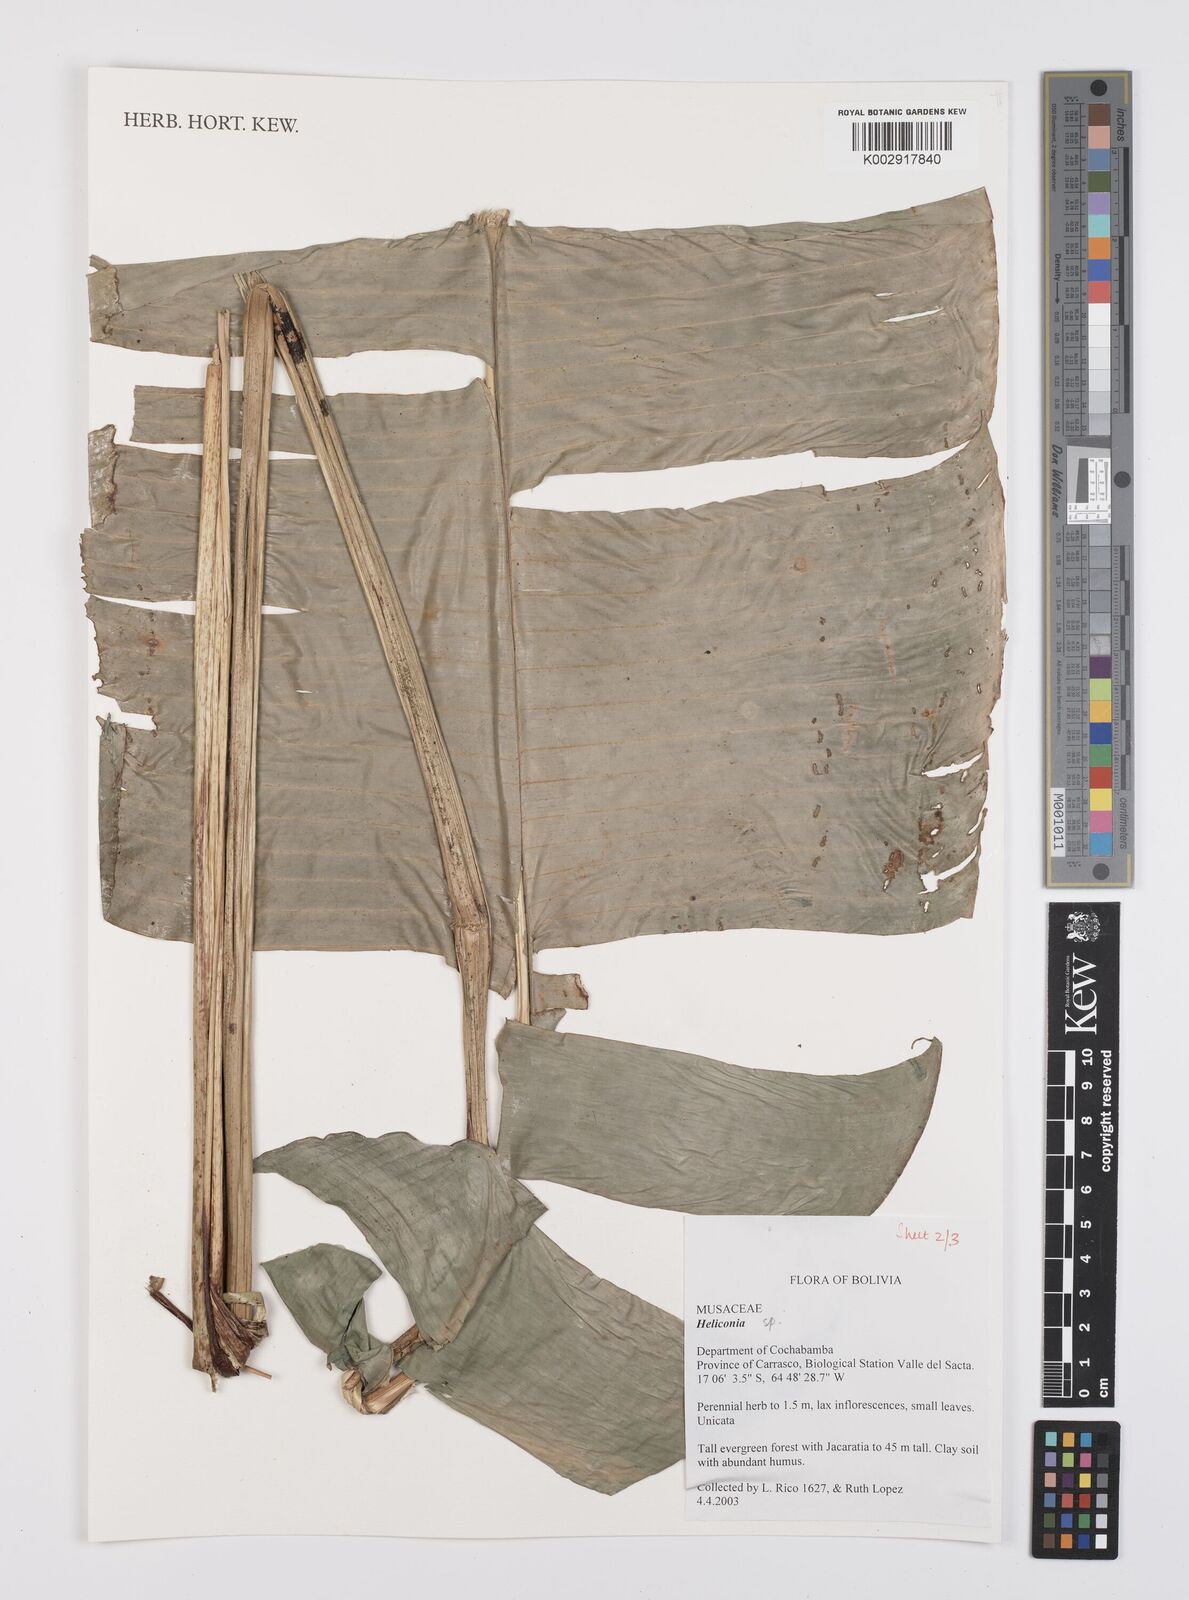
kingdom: Plantae
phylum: Tracheophyta
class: Liliopsida
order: Zingiberales
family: Heliconiaceae
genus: Heliconia
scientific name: Heliconia
